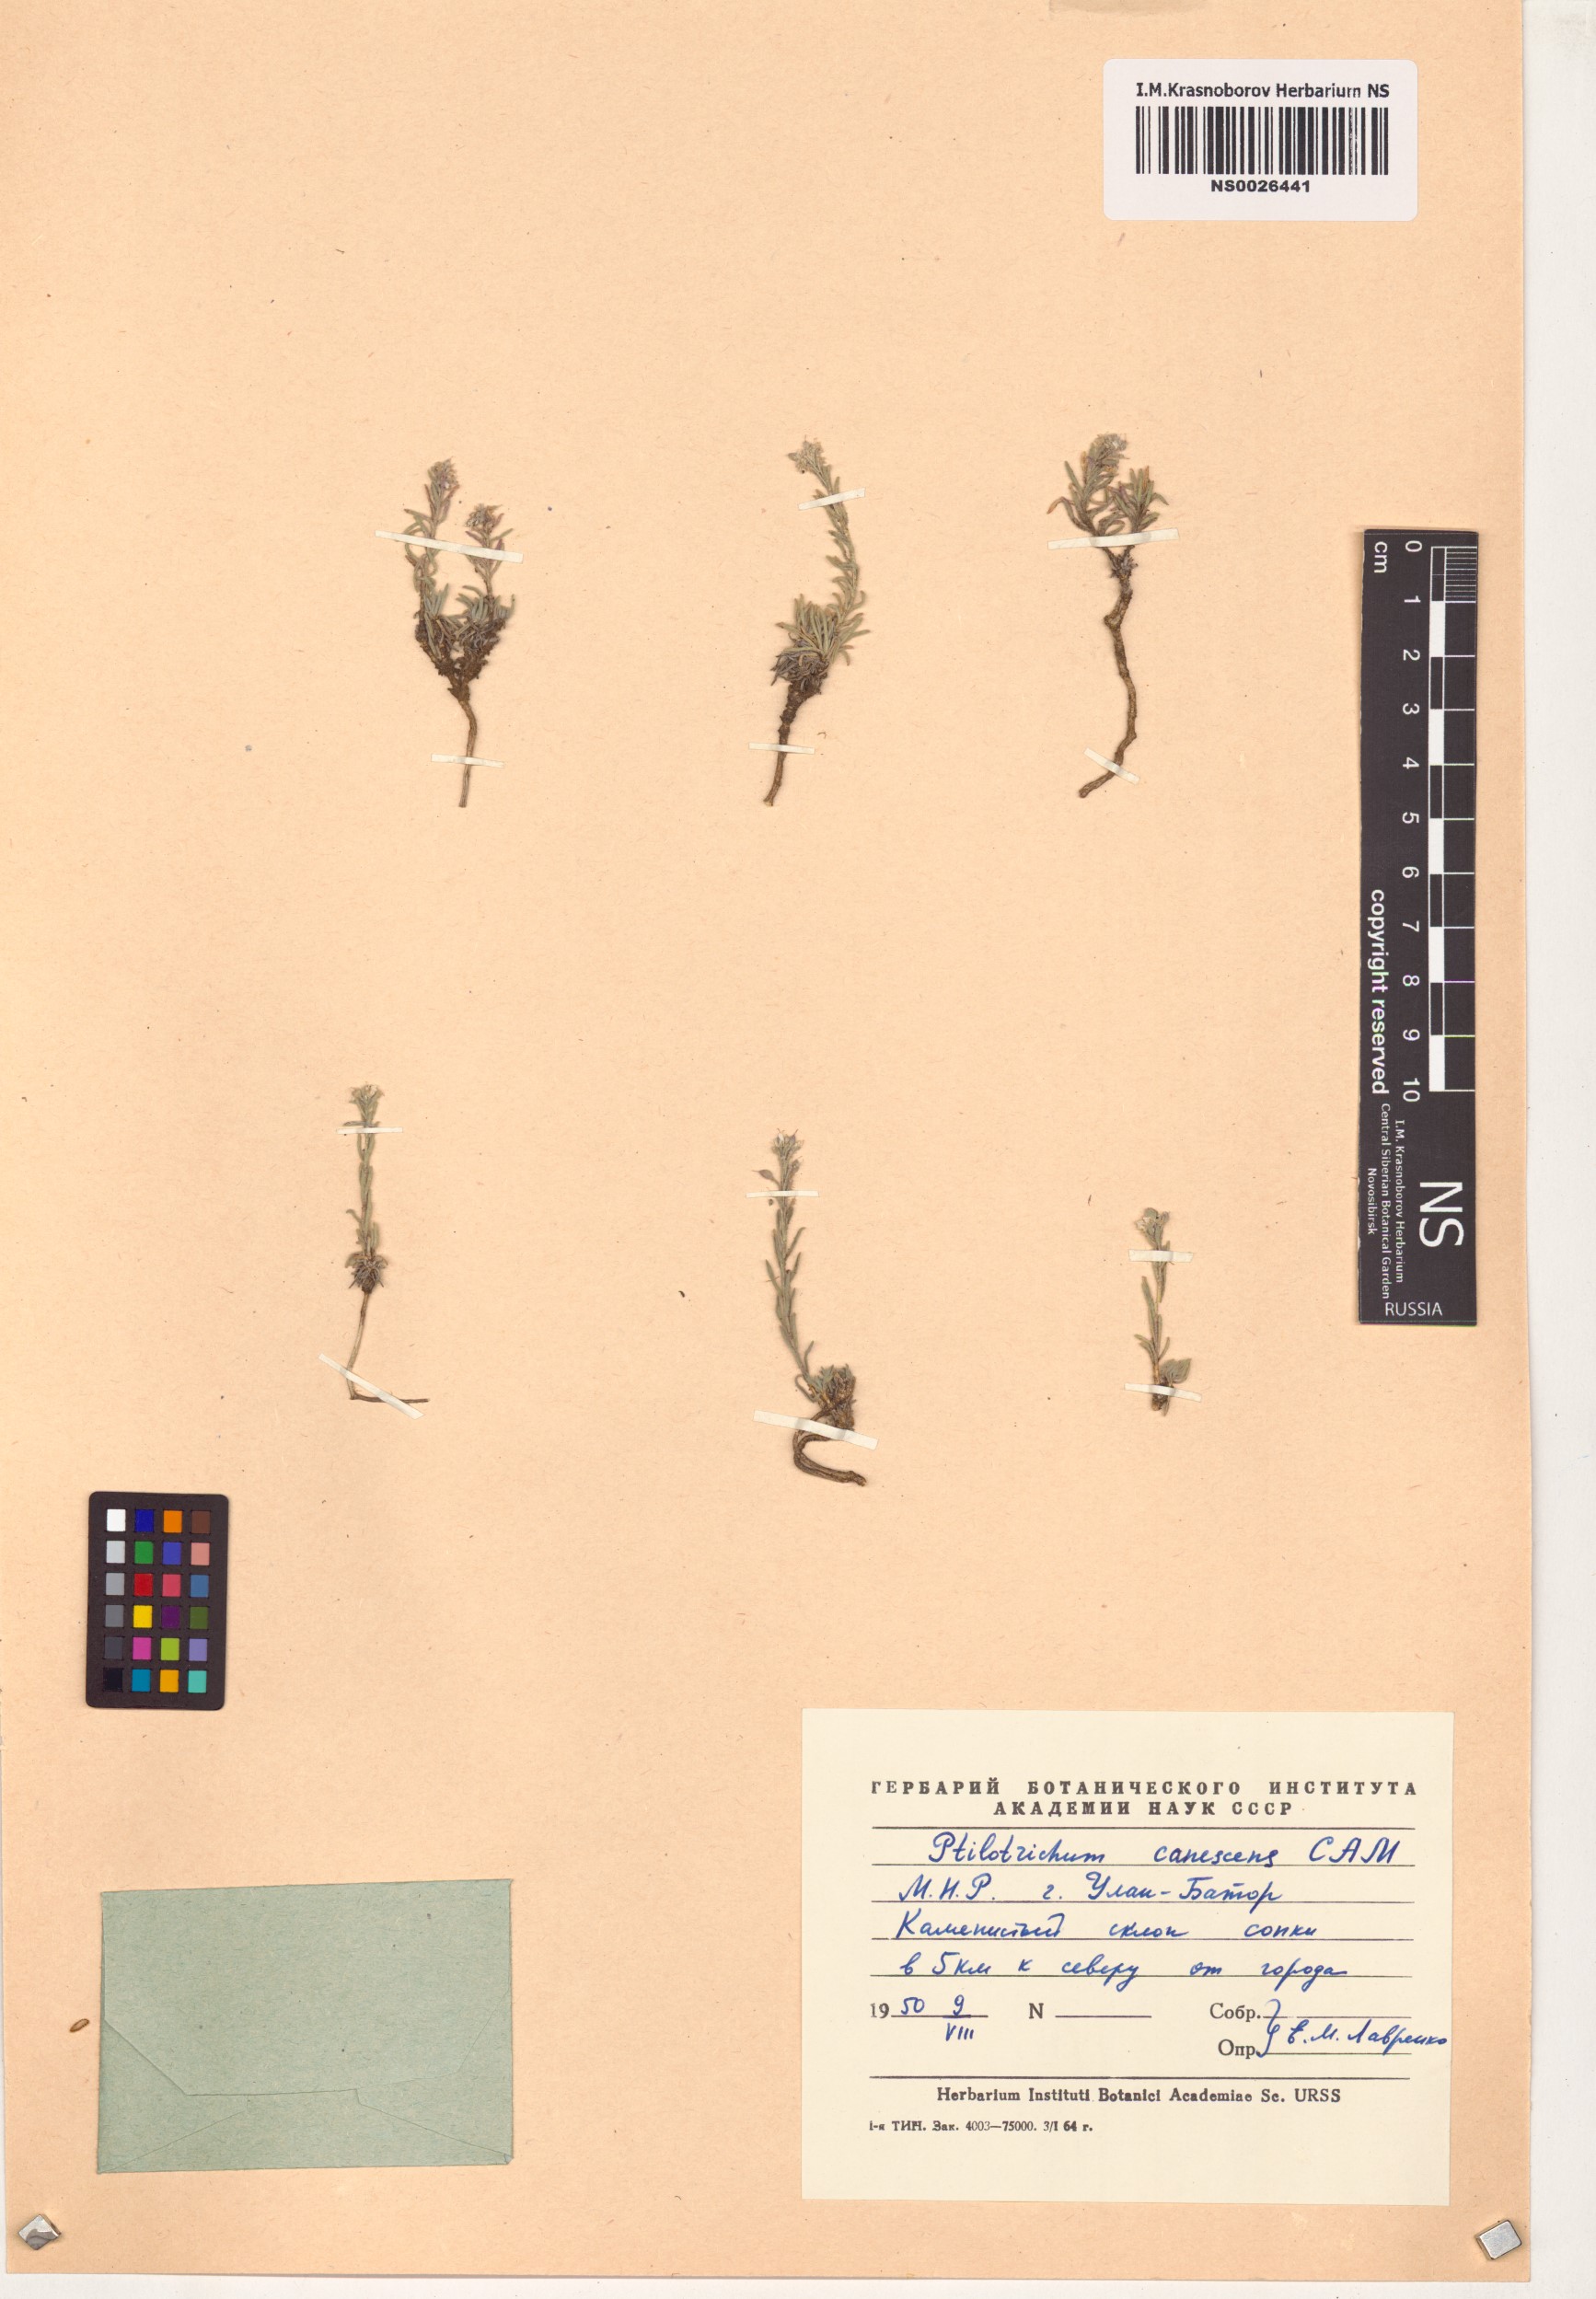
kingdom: Plantae
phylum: Tracheophyta
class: Magnoliopsida
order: Brassicales
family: Brassicaceae
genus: Stevenia
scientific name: Stevenia canescens
